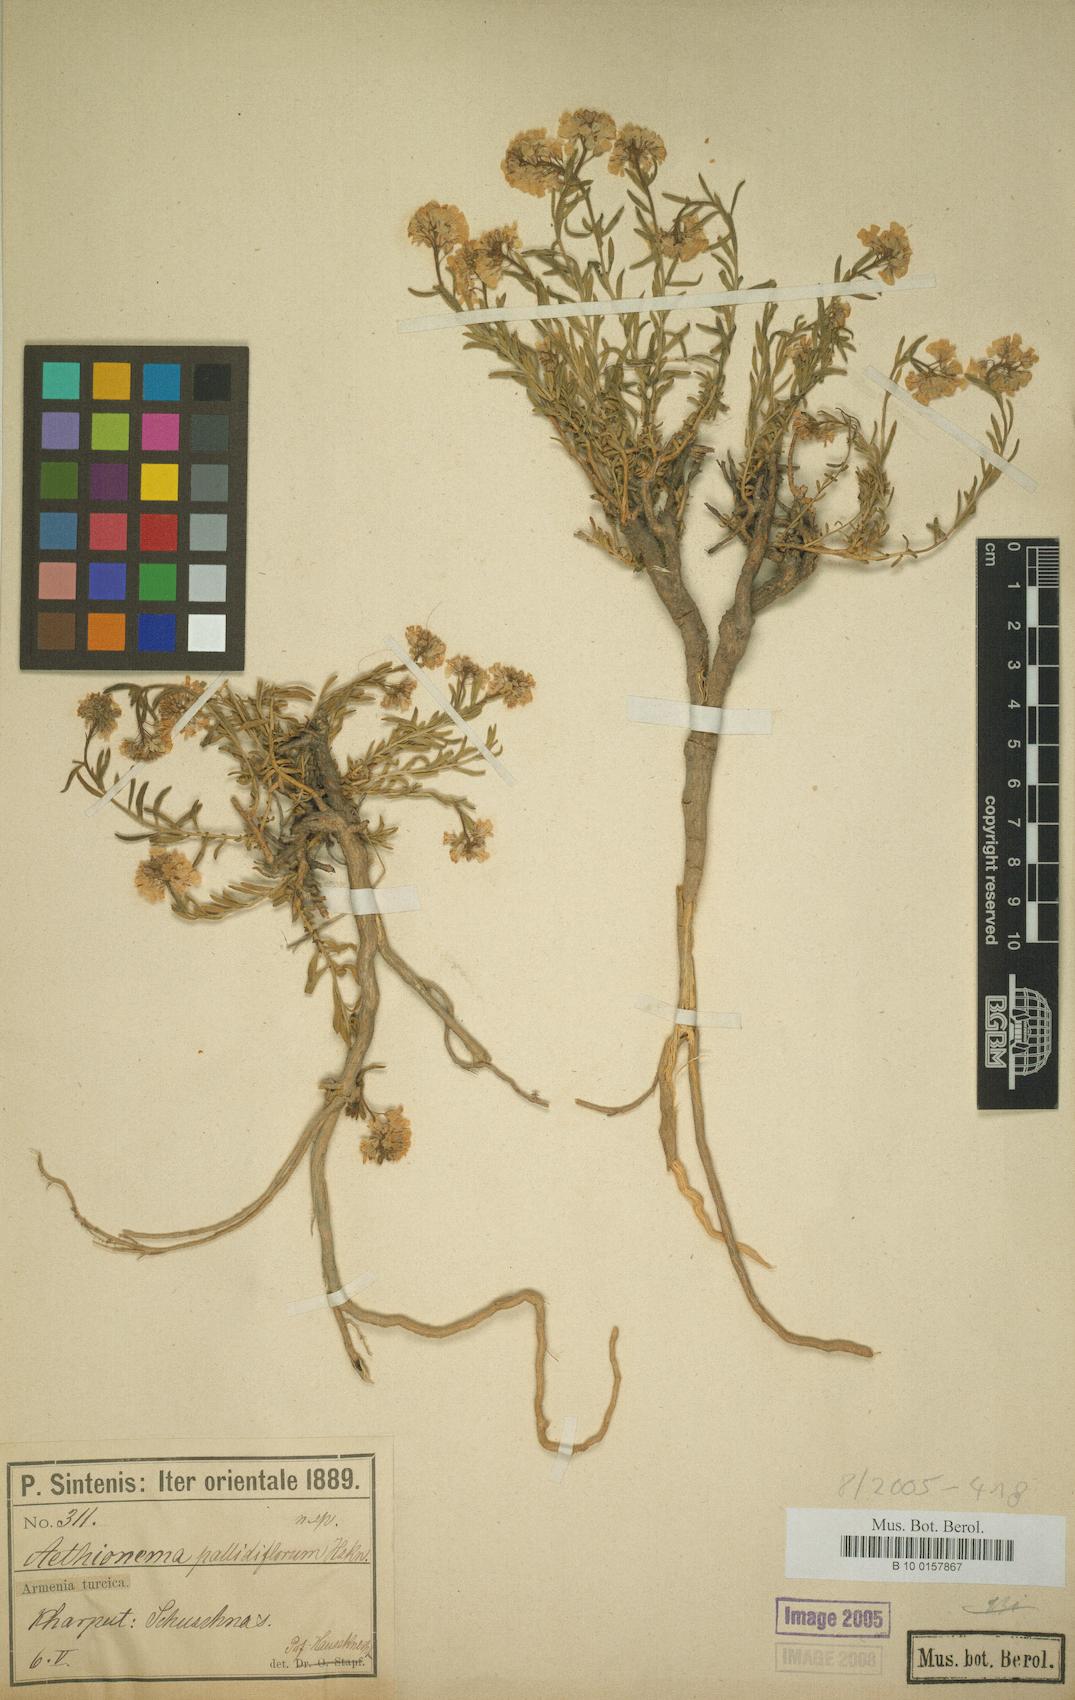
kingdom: Plantae
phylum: Tracheophyta
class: Magnoliopsida
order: Brassicales
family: Brassicaceae
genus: Aethionema
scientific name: Aethionema grandiflorum
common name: Persian stonecress
